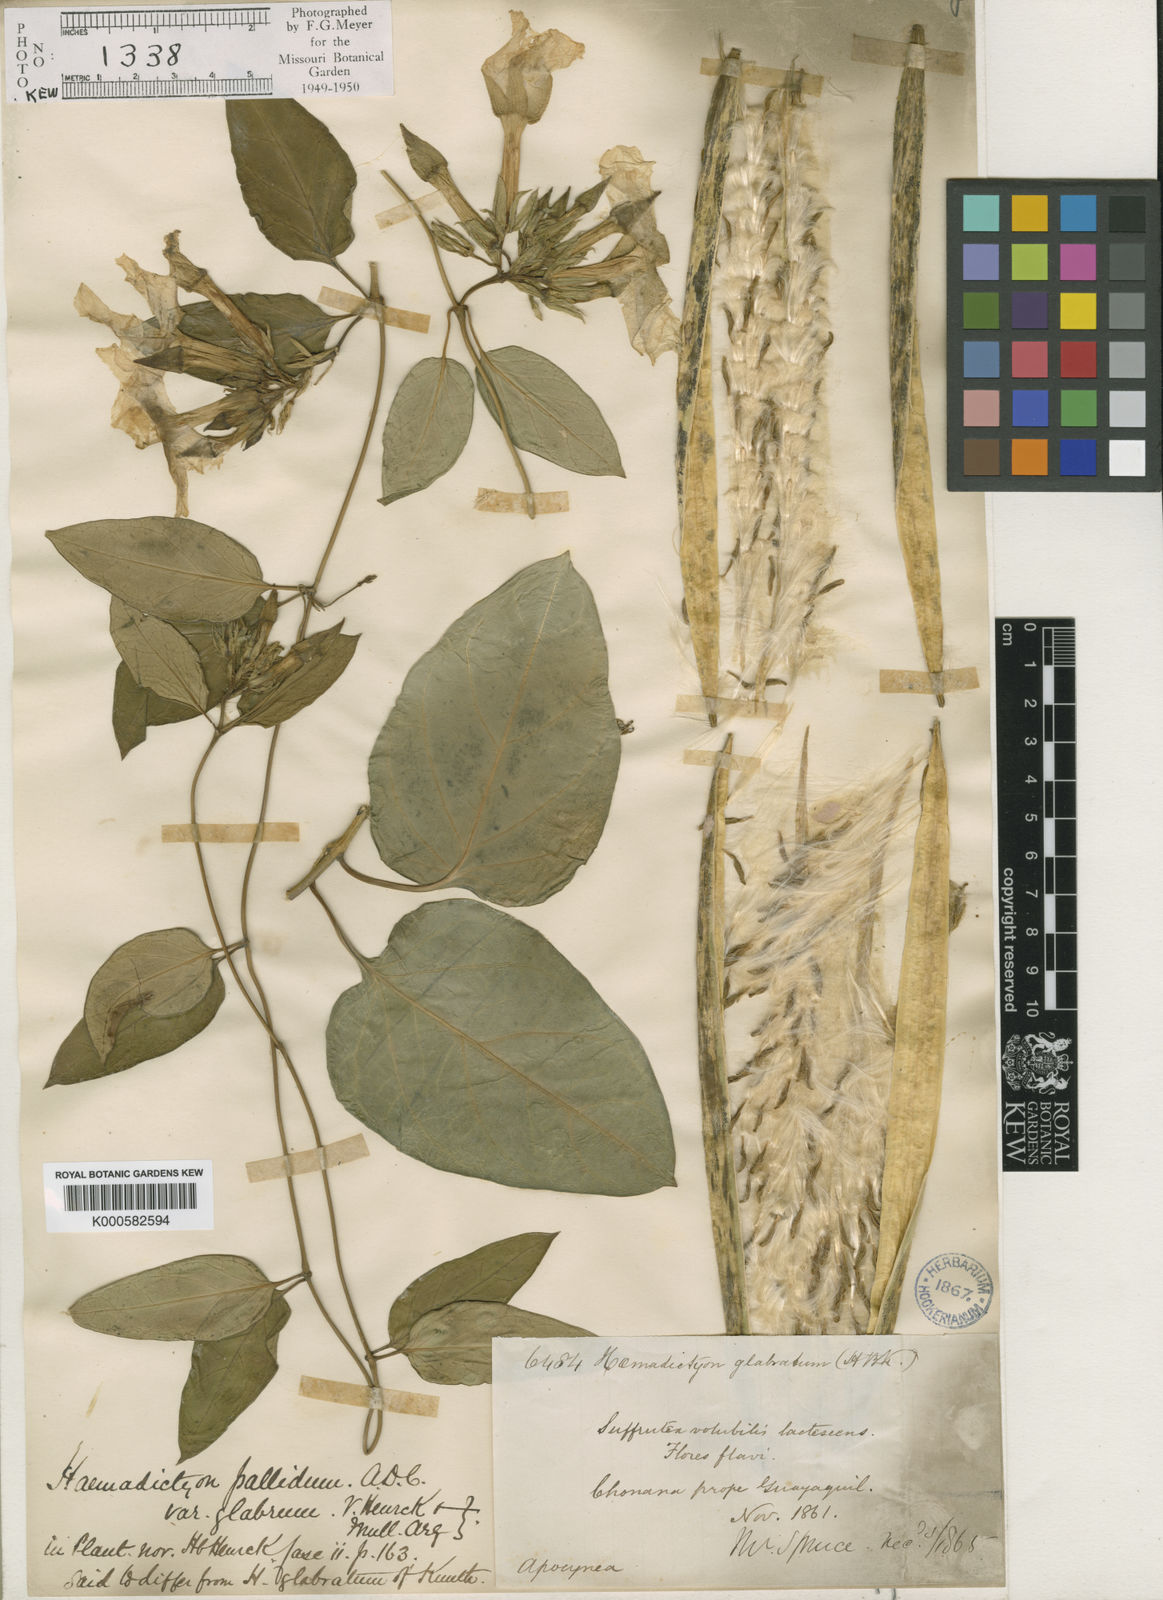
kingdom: Plantae
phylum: Tracheophyta
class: Magnoliopsida
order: Gentianales
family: Apocynaceae
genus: Prestonia
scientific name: Prestonia
